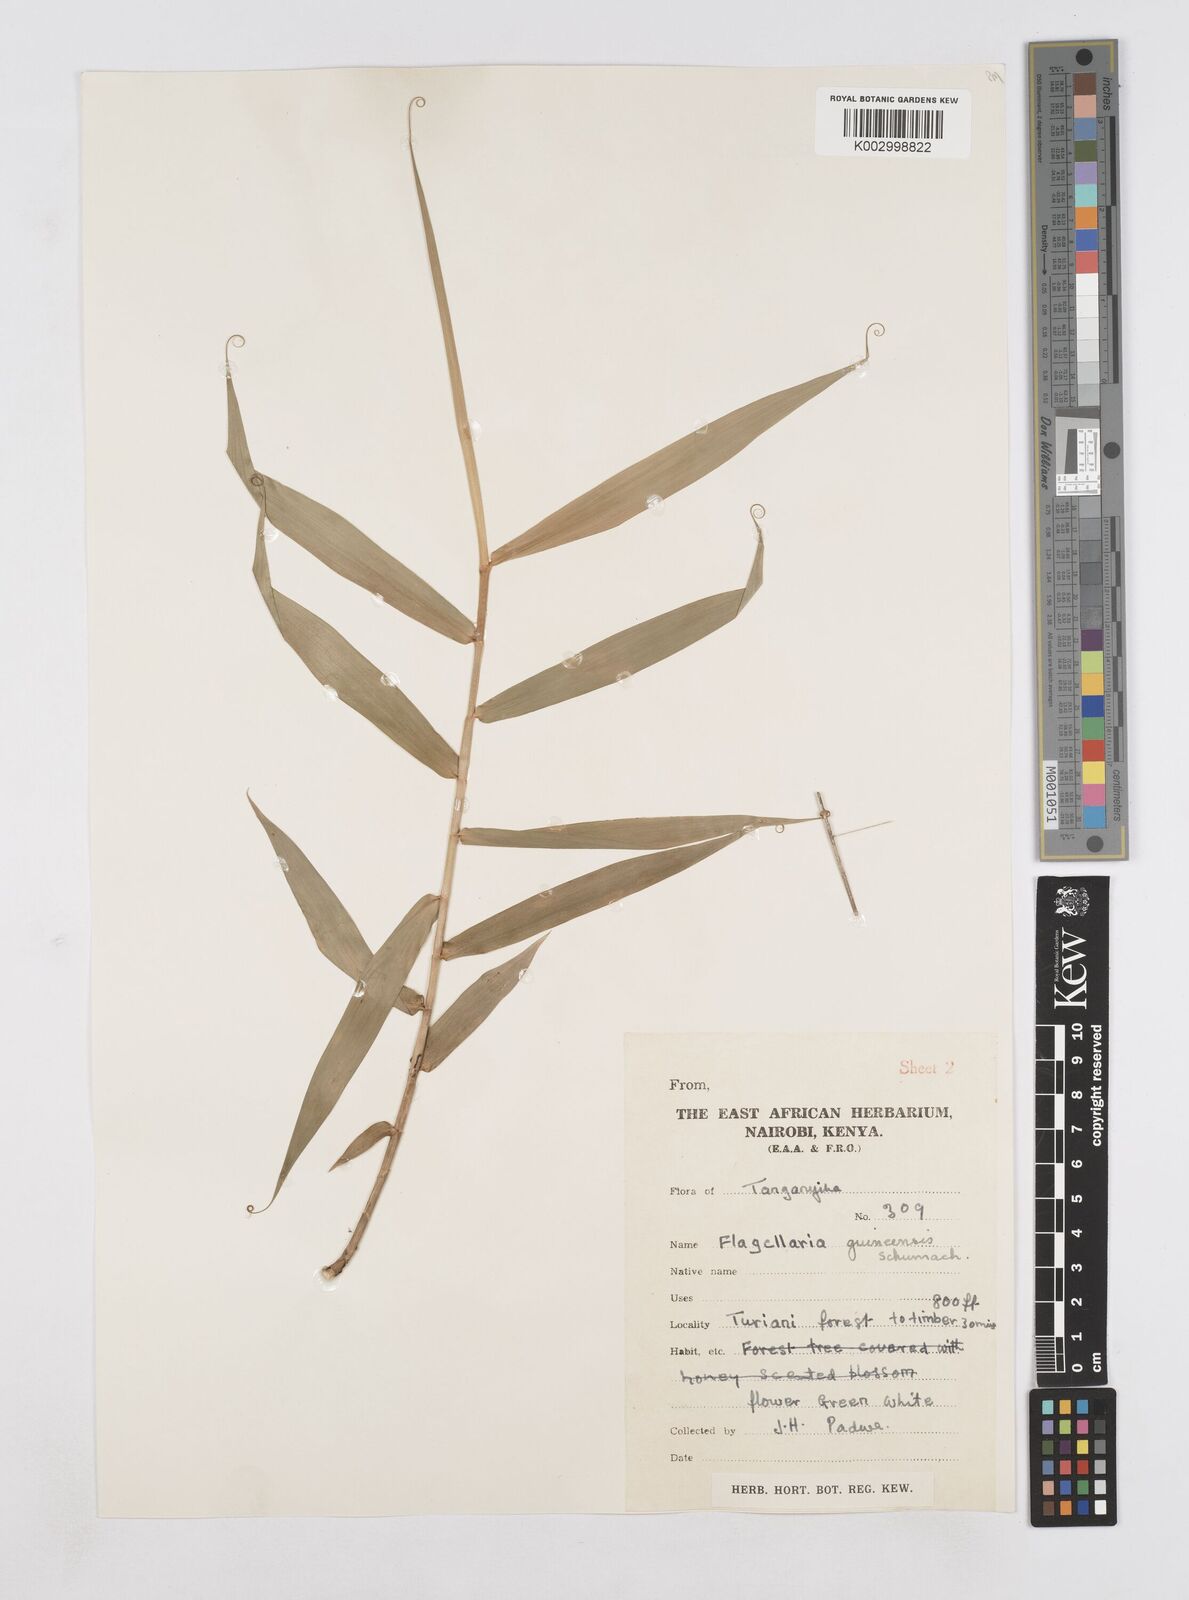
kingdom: Plantae
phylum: Tracheophyta
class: Liliopsida
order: Poales
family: Flagellariaceae
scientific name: Flagellariaceae
